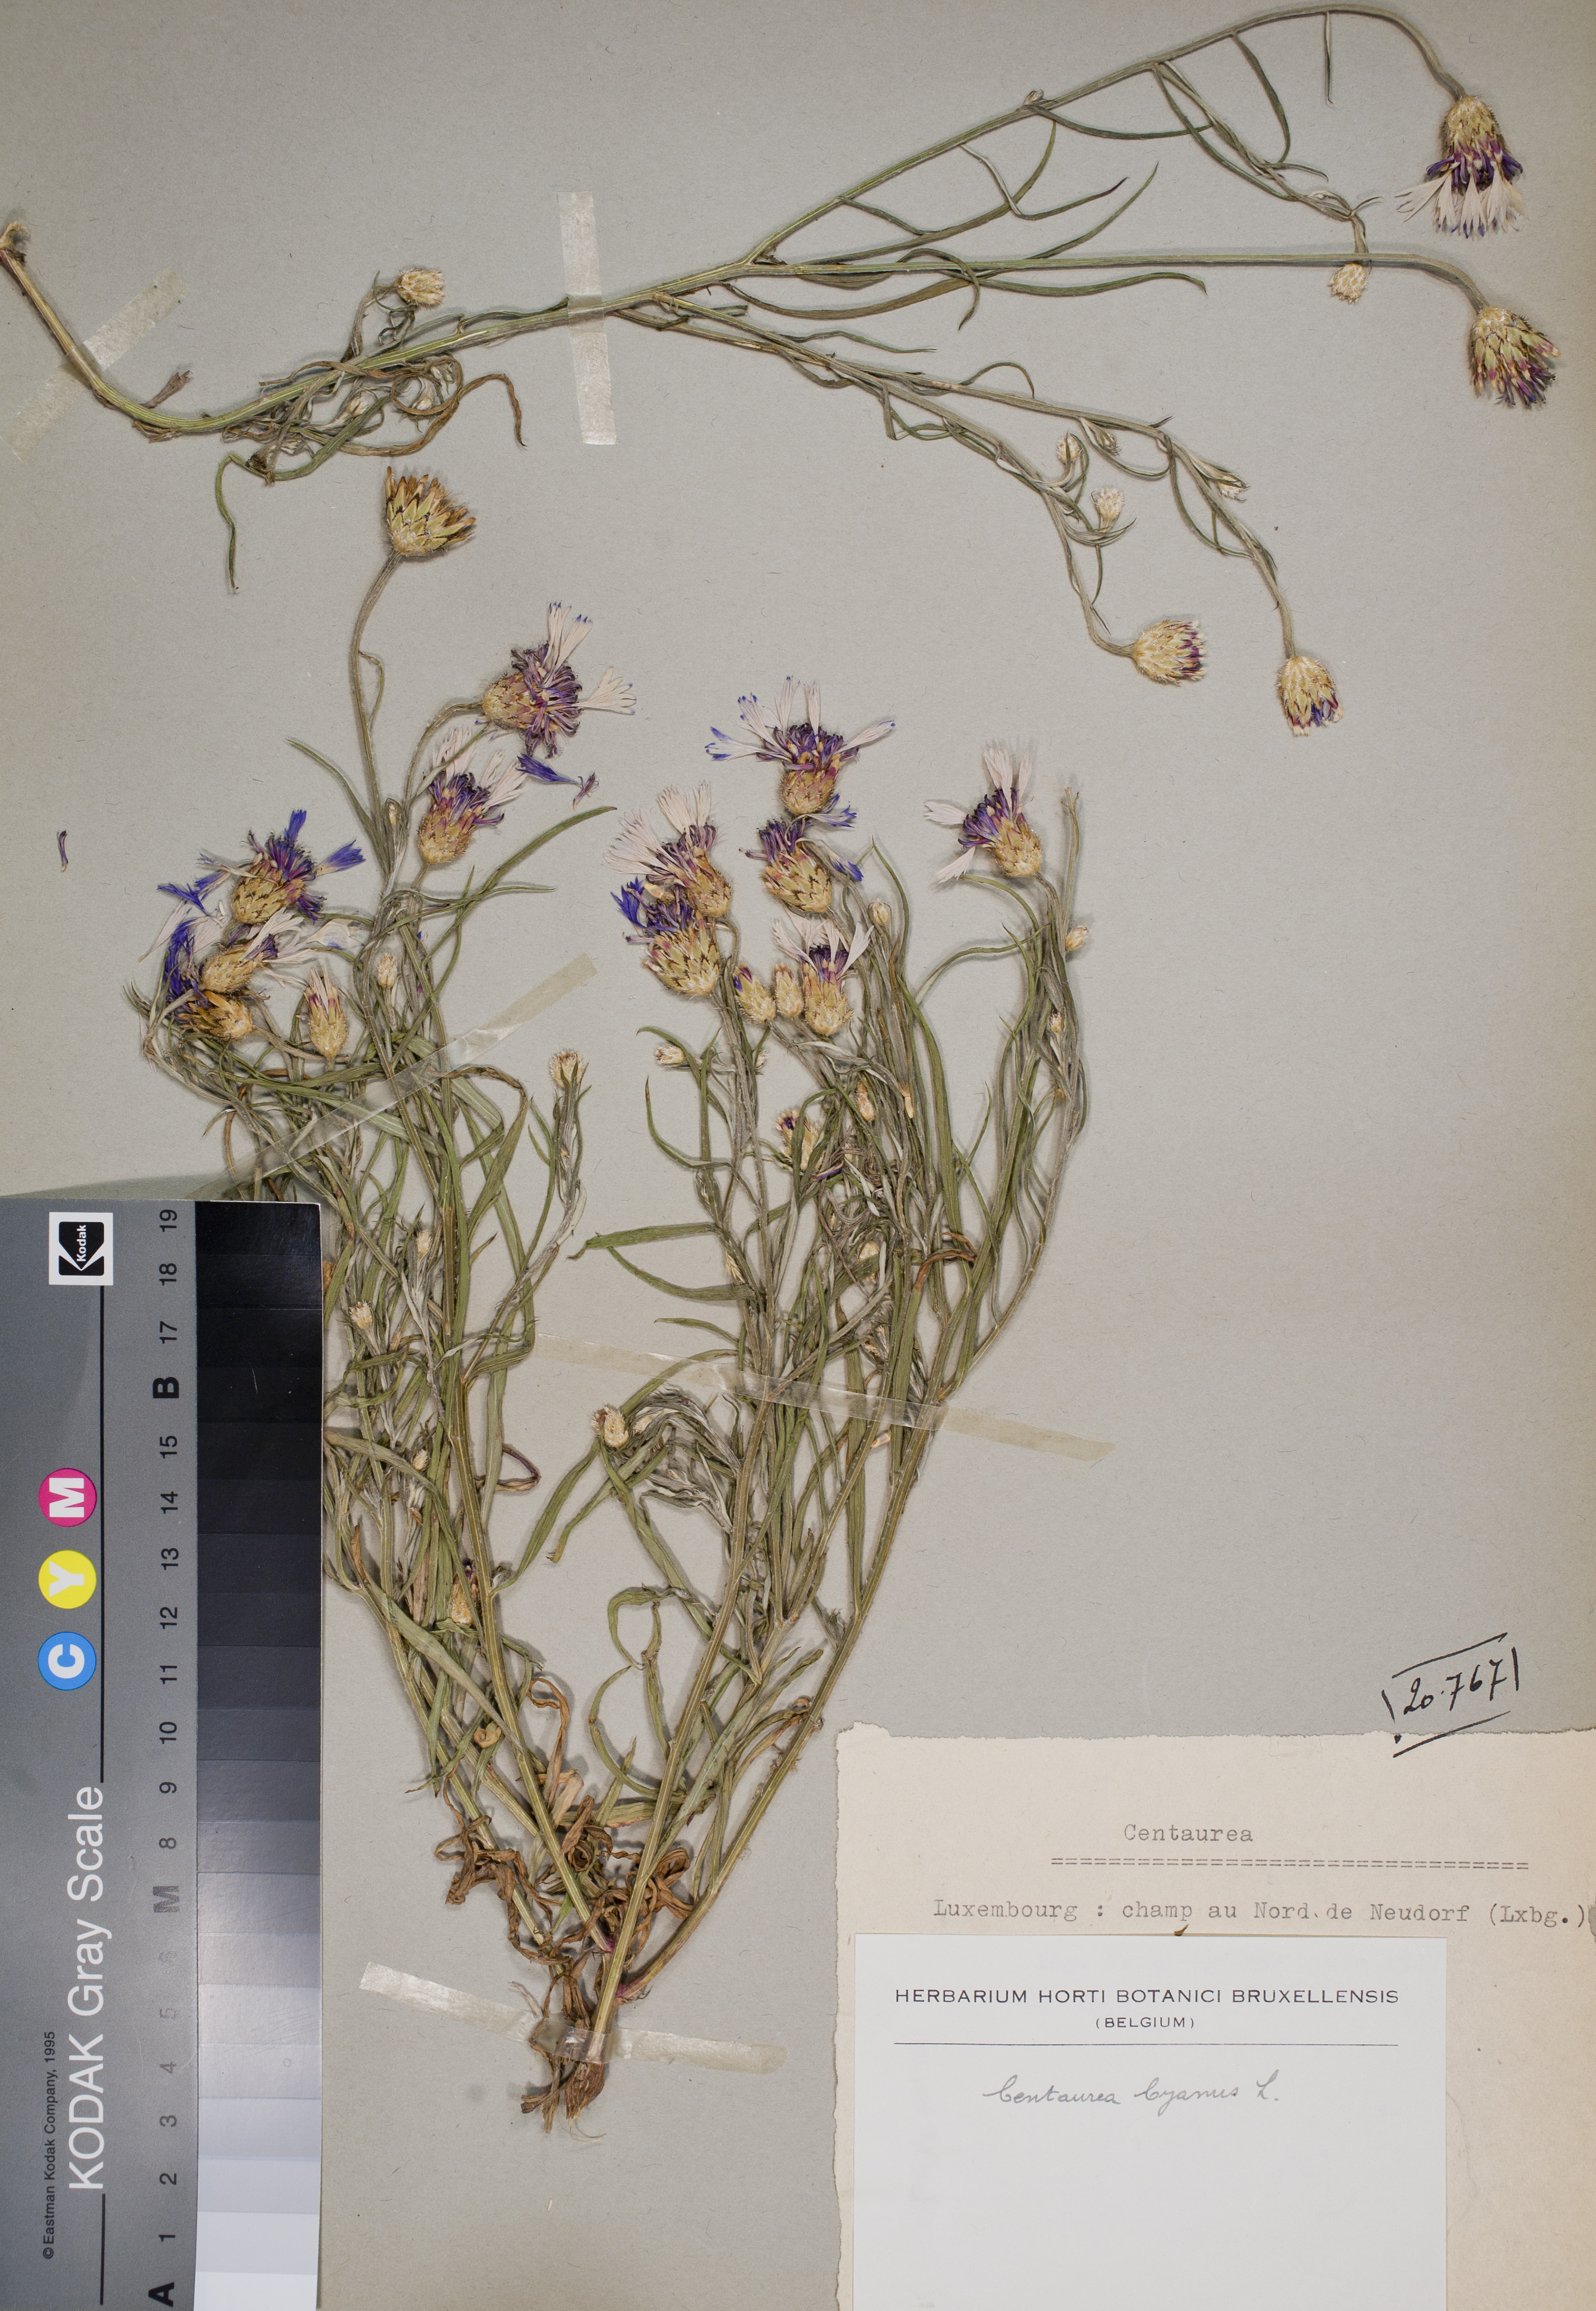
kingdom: Plantae
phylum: Tracheophyta
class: Magnoliopsida
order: Asterales
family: Asteraceae
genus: Centaurea
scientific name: Centaurea cyanus
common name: Cornflower
